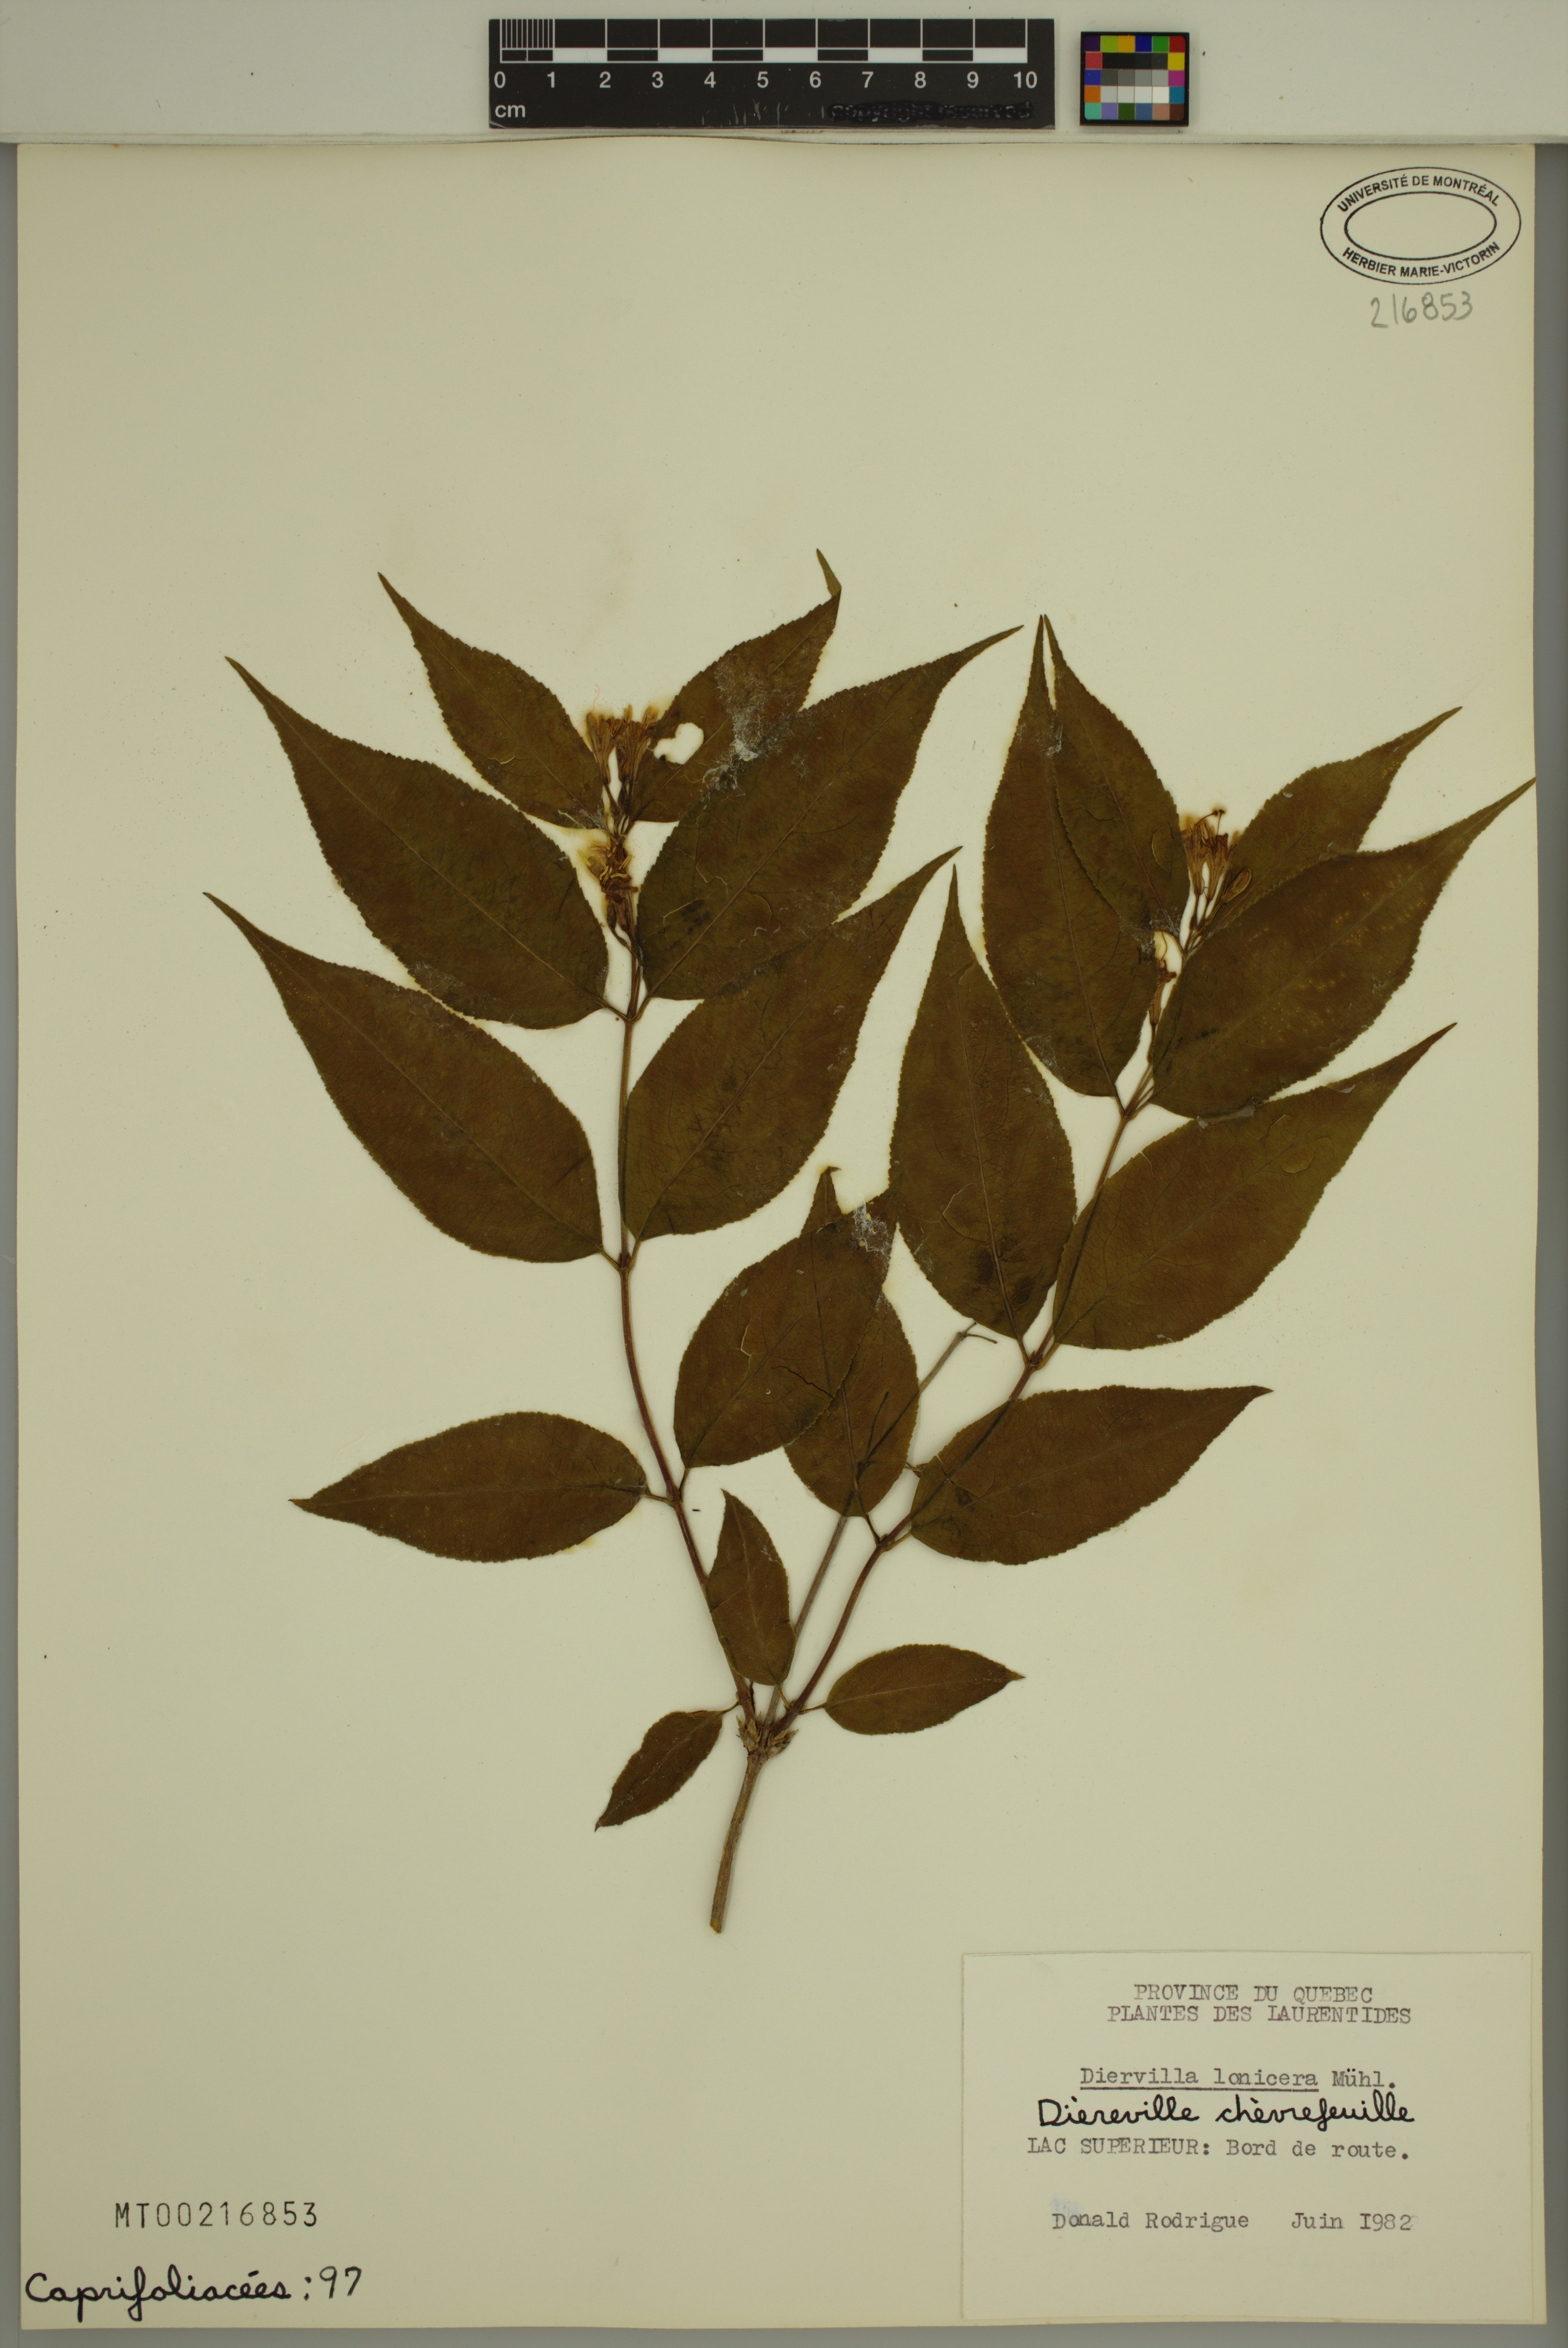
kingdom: Plantae
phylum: Tracheophyta
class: Magnoliopsida
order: Dipsacales
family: Caprifoliaceae
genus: Diervilla
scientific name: Diervilla lonicera
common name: Bush-honeysuckle
